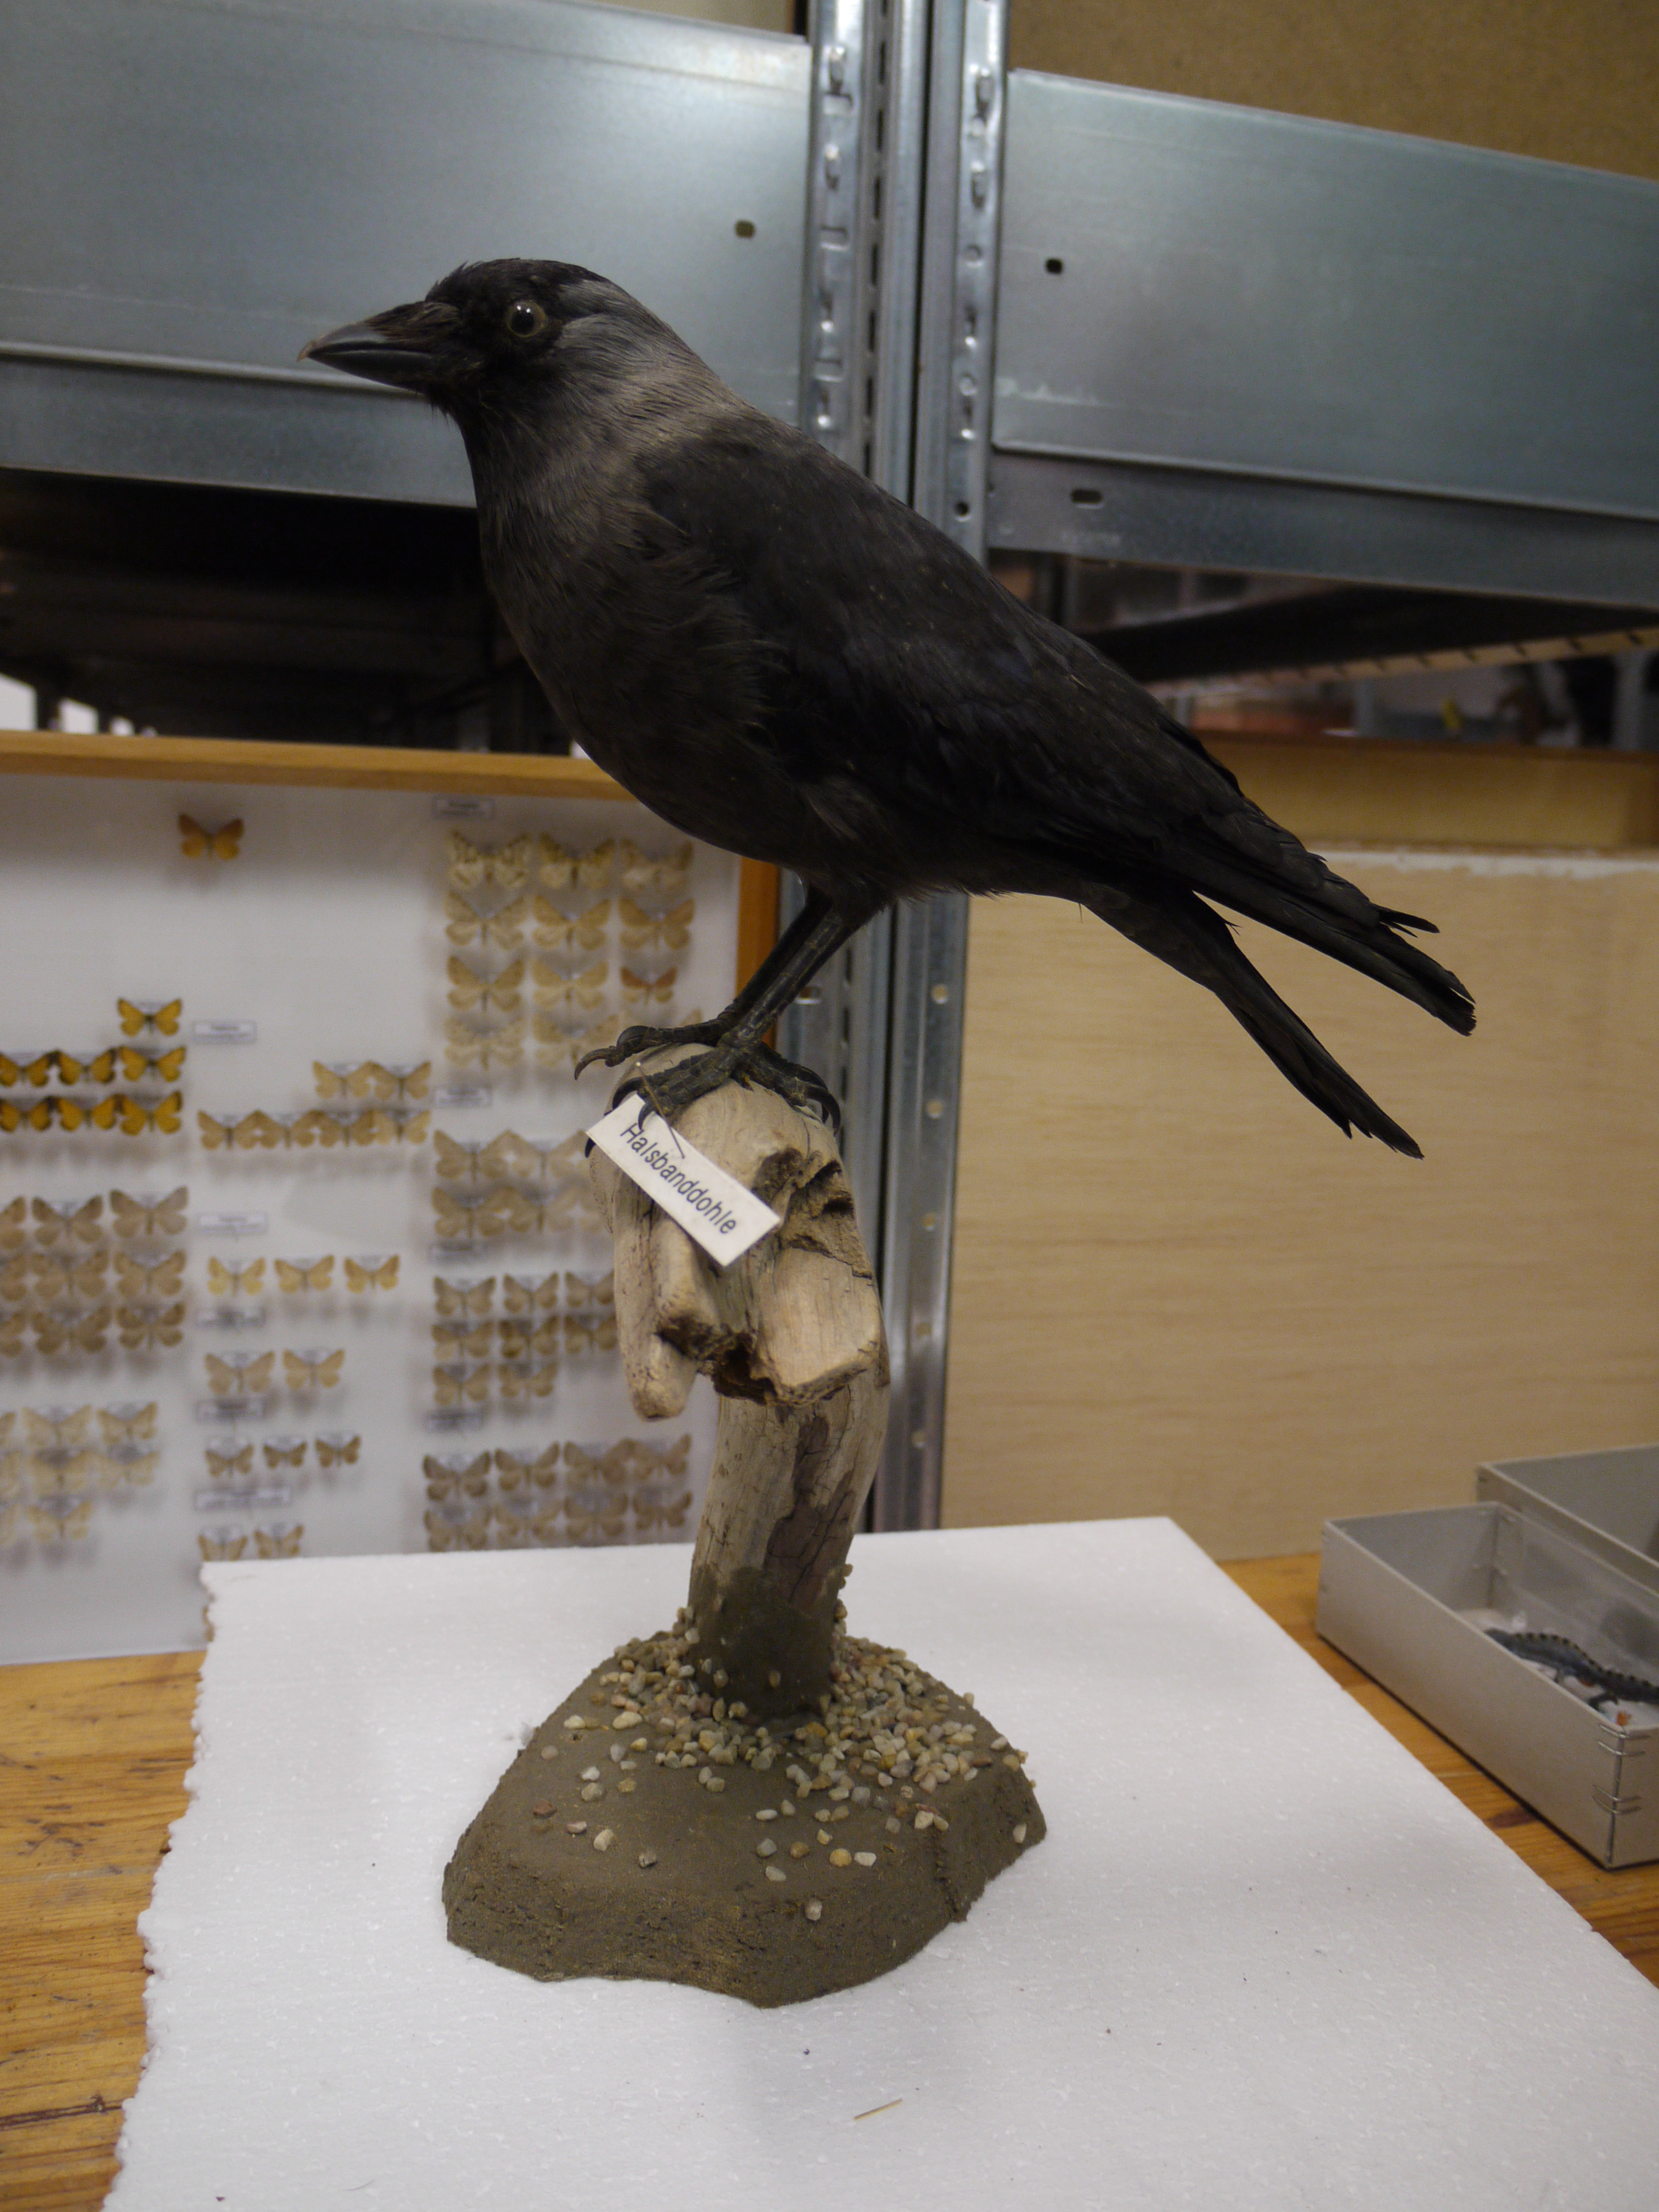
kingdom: Animalia
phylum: Chordata
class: Aves
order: Passeriformes
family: Corvidae
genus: Coloeus
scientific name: Coloeus monedula
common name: Western jackdaw
